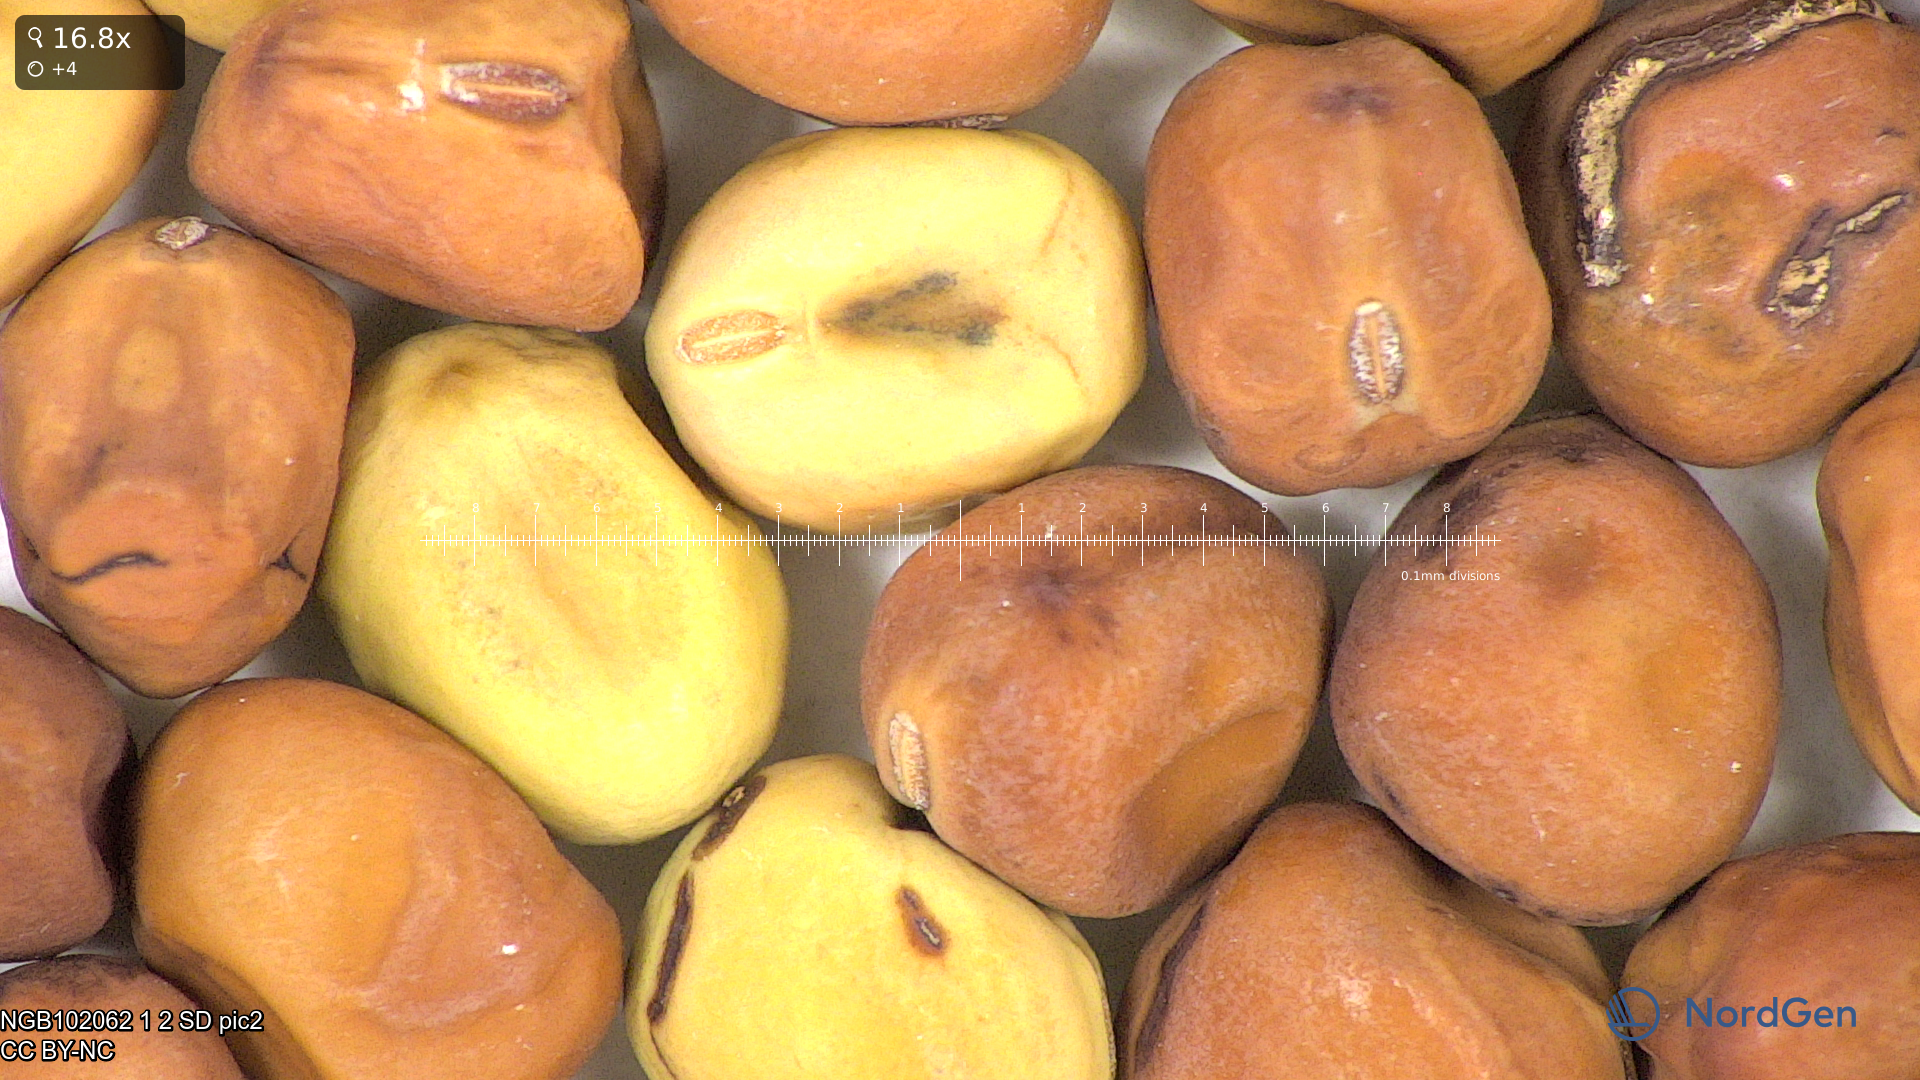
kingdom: Plantae
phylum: Tracheophyta
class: Magnoliopsida
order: Fabales
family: Fabaceae
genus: Lathyrus
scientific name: Lathyrus oleraceus
